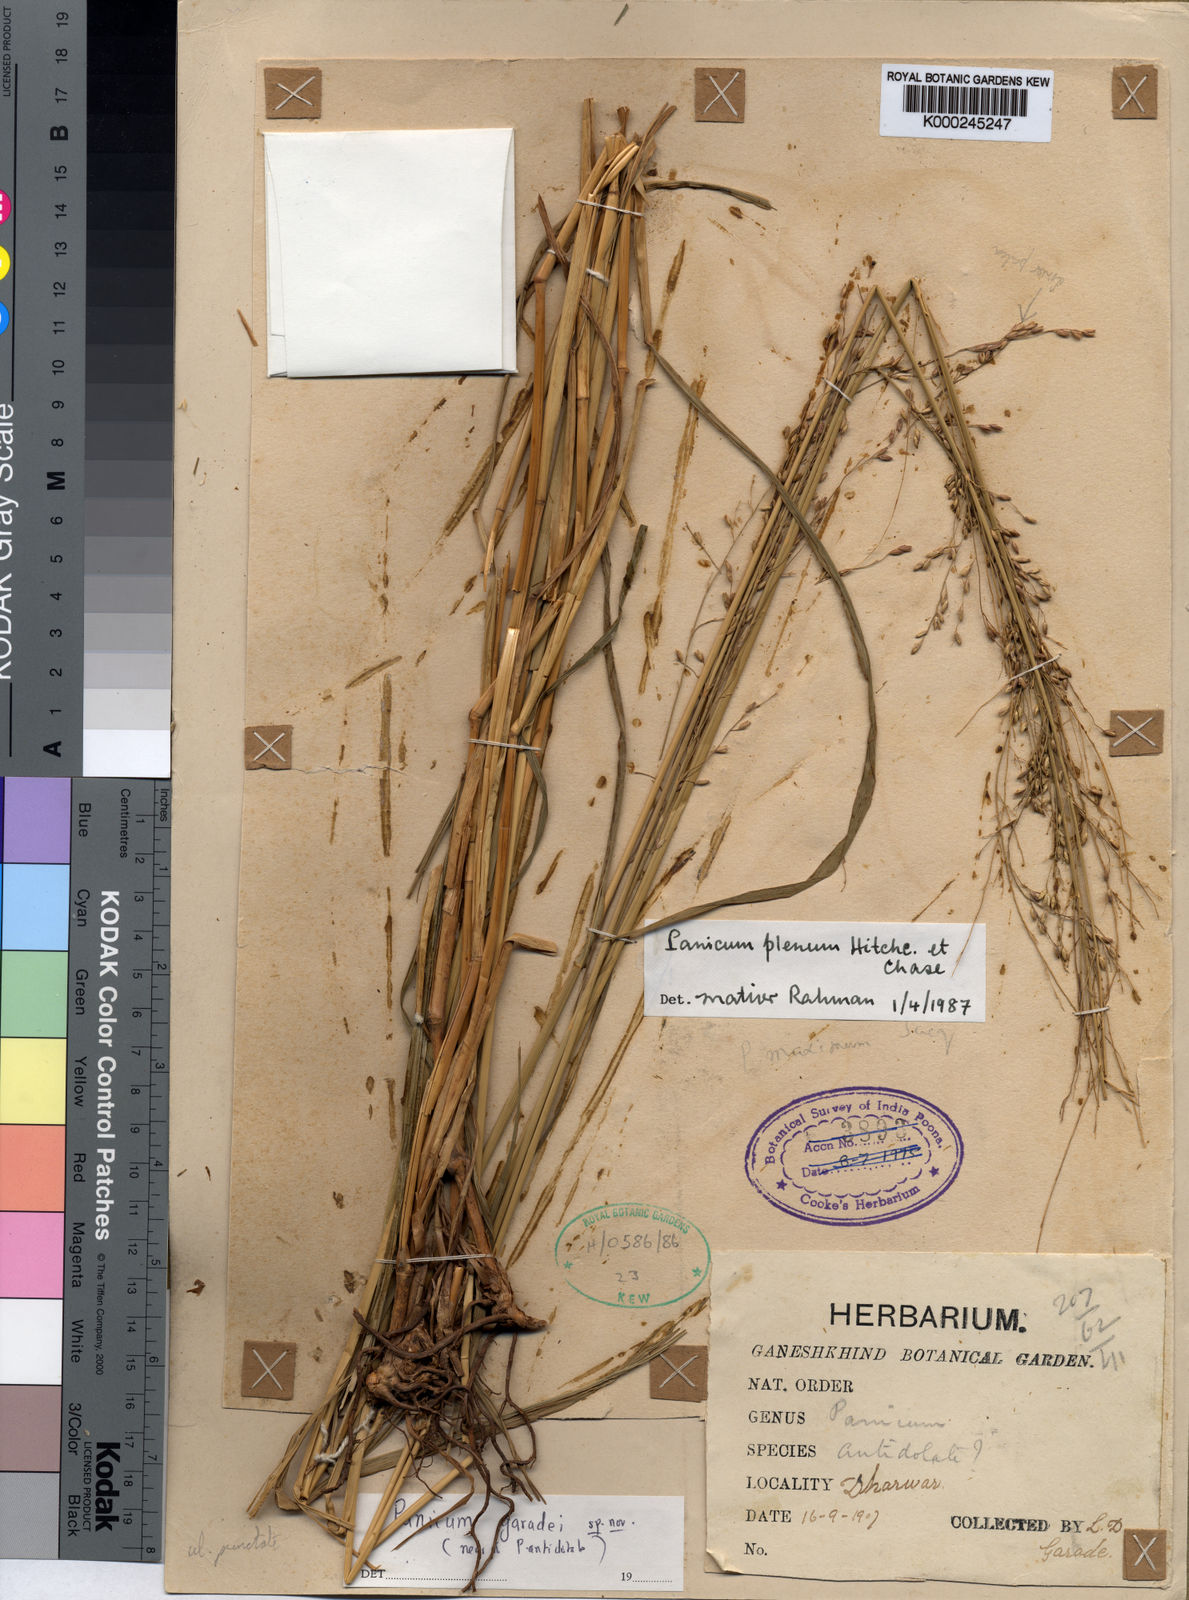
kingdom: Plantae
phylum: Tracheophyta
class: Liliopsida
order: Poales
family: Poaceae
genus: Panicum
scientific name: Panicum
